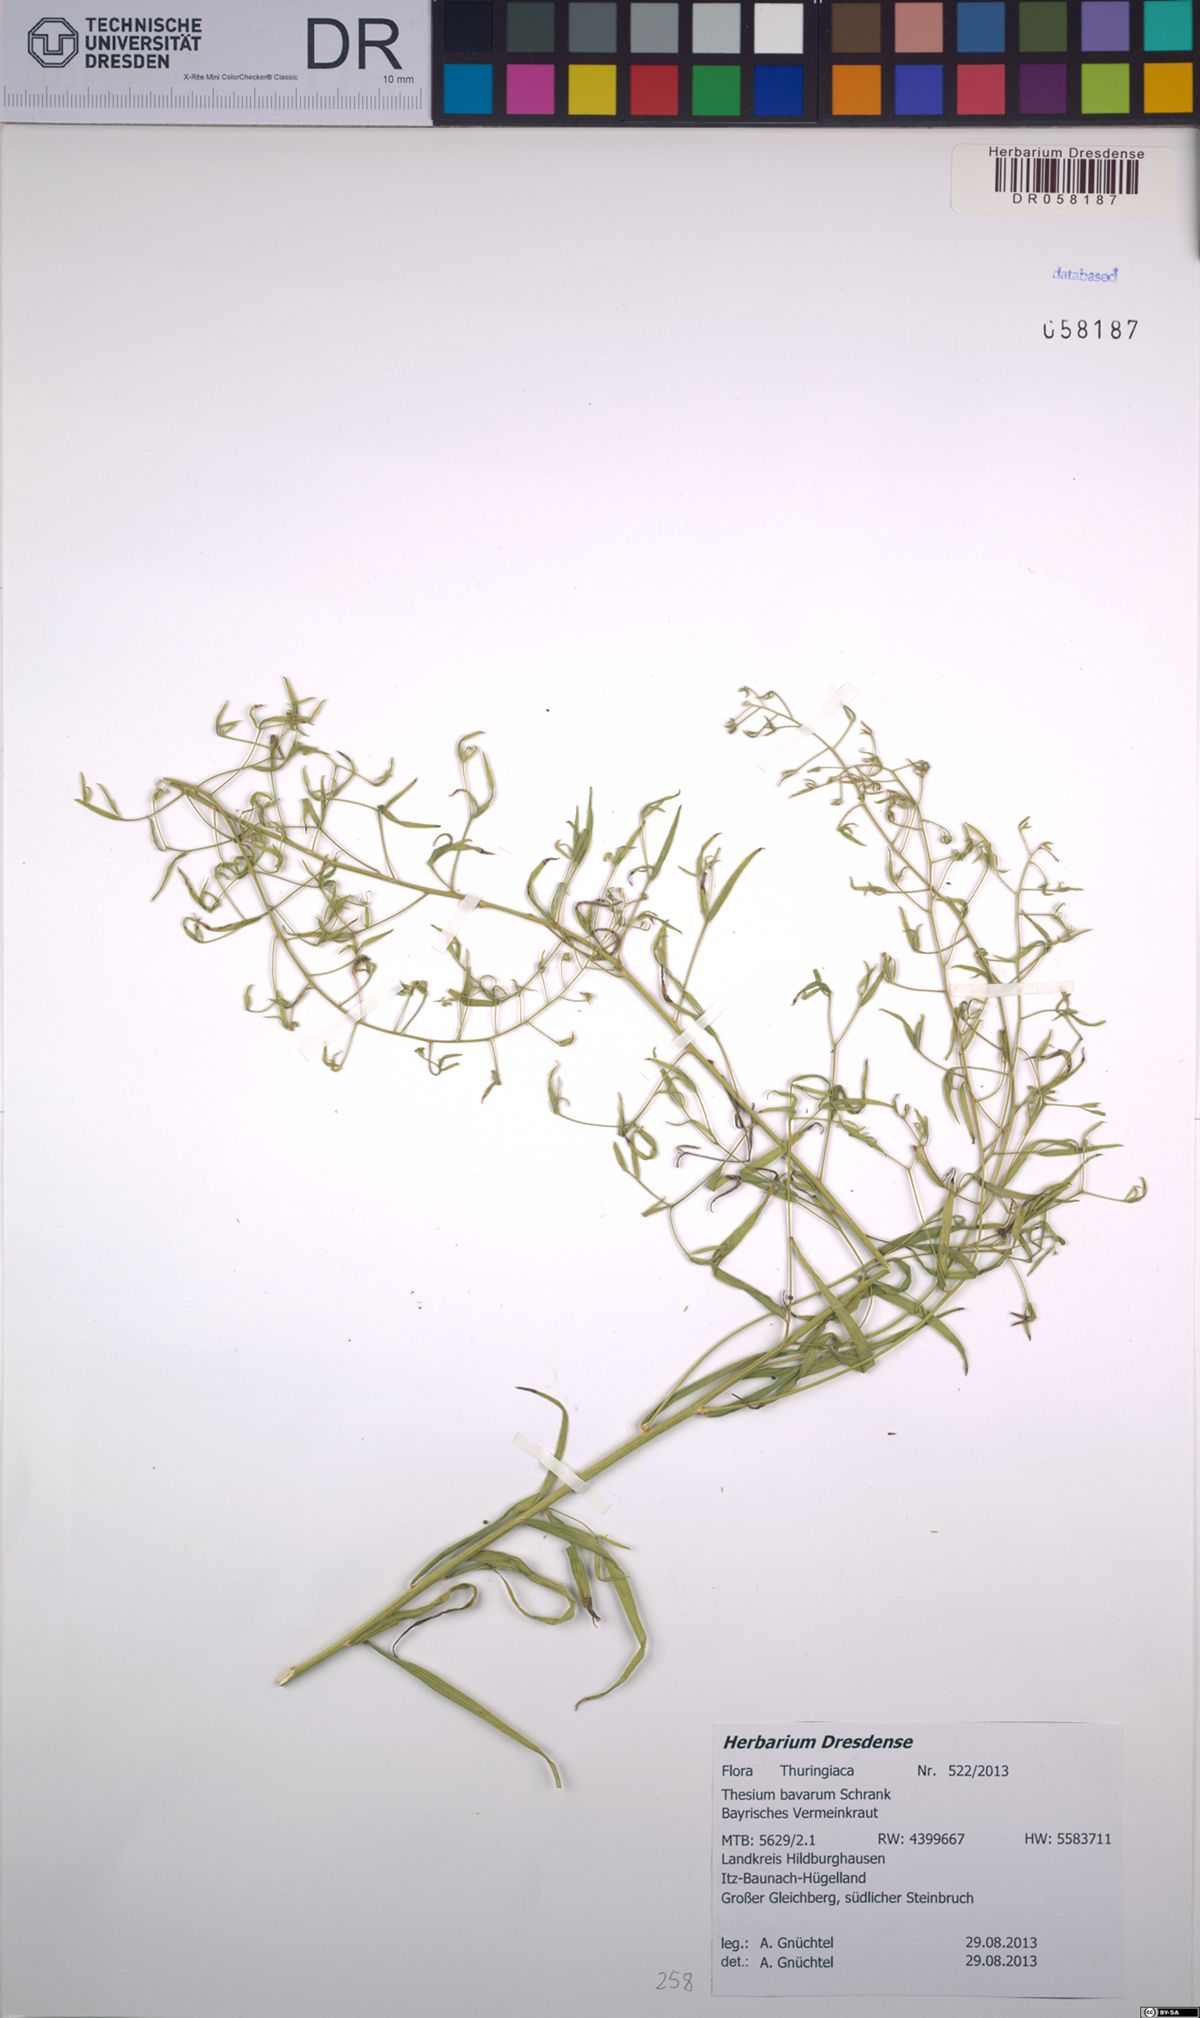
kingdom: Plantae
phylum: Tracheophyta
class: Magnoliopsida
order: Santalales
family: Thesiaceae
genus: Thesium
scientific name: Thesium bavarum
